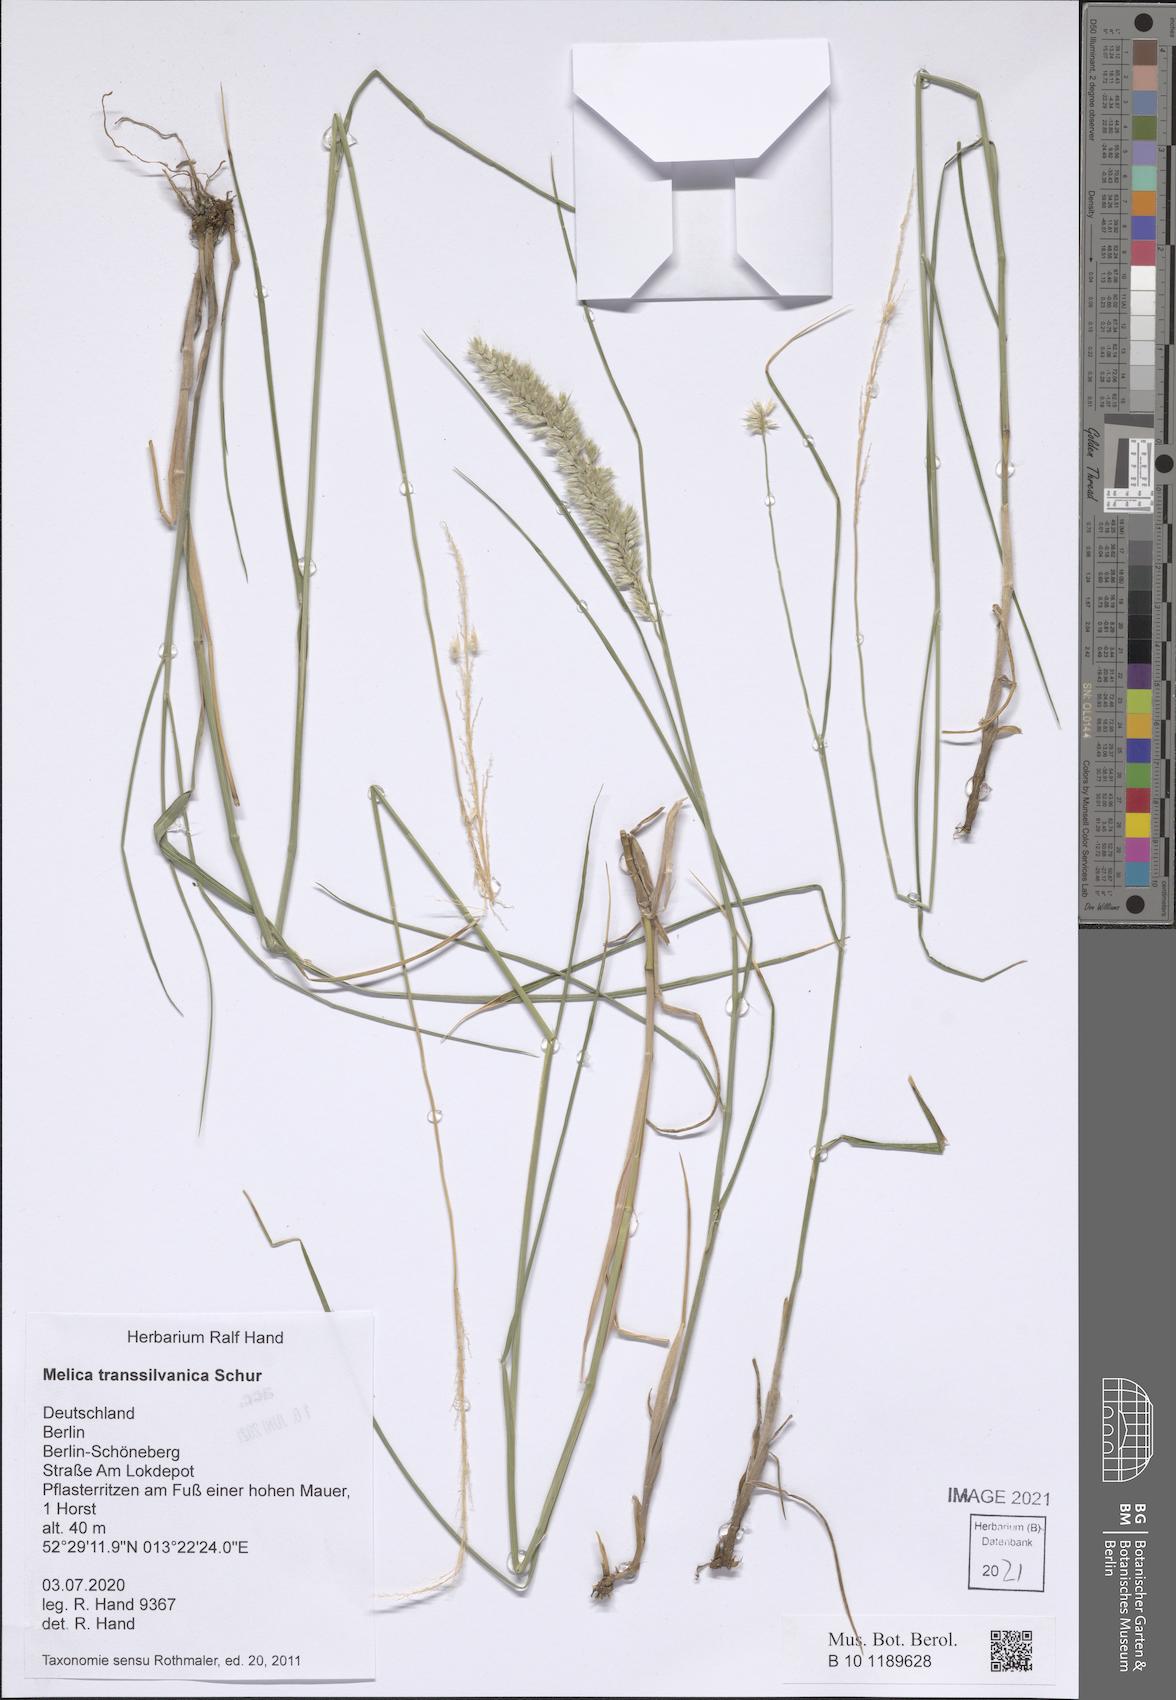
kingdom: Plantae
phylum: Tracheophyta
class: Liliopsida
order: Poales
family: Poaceae
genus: Melica
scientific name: Melica transsilvanica
